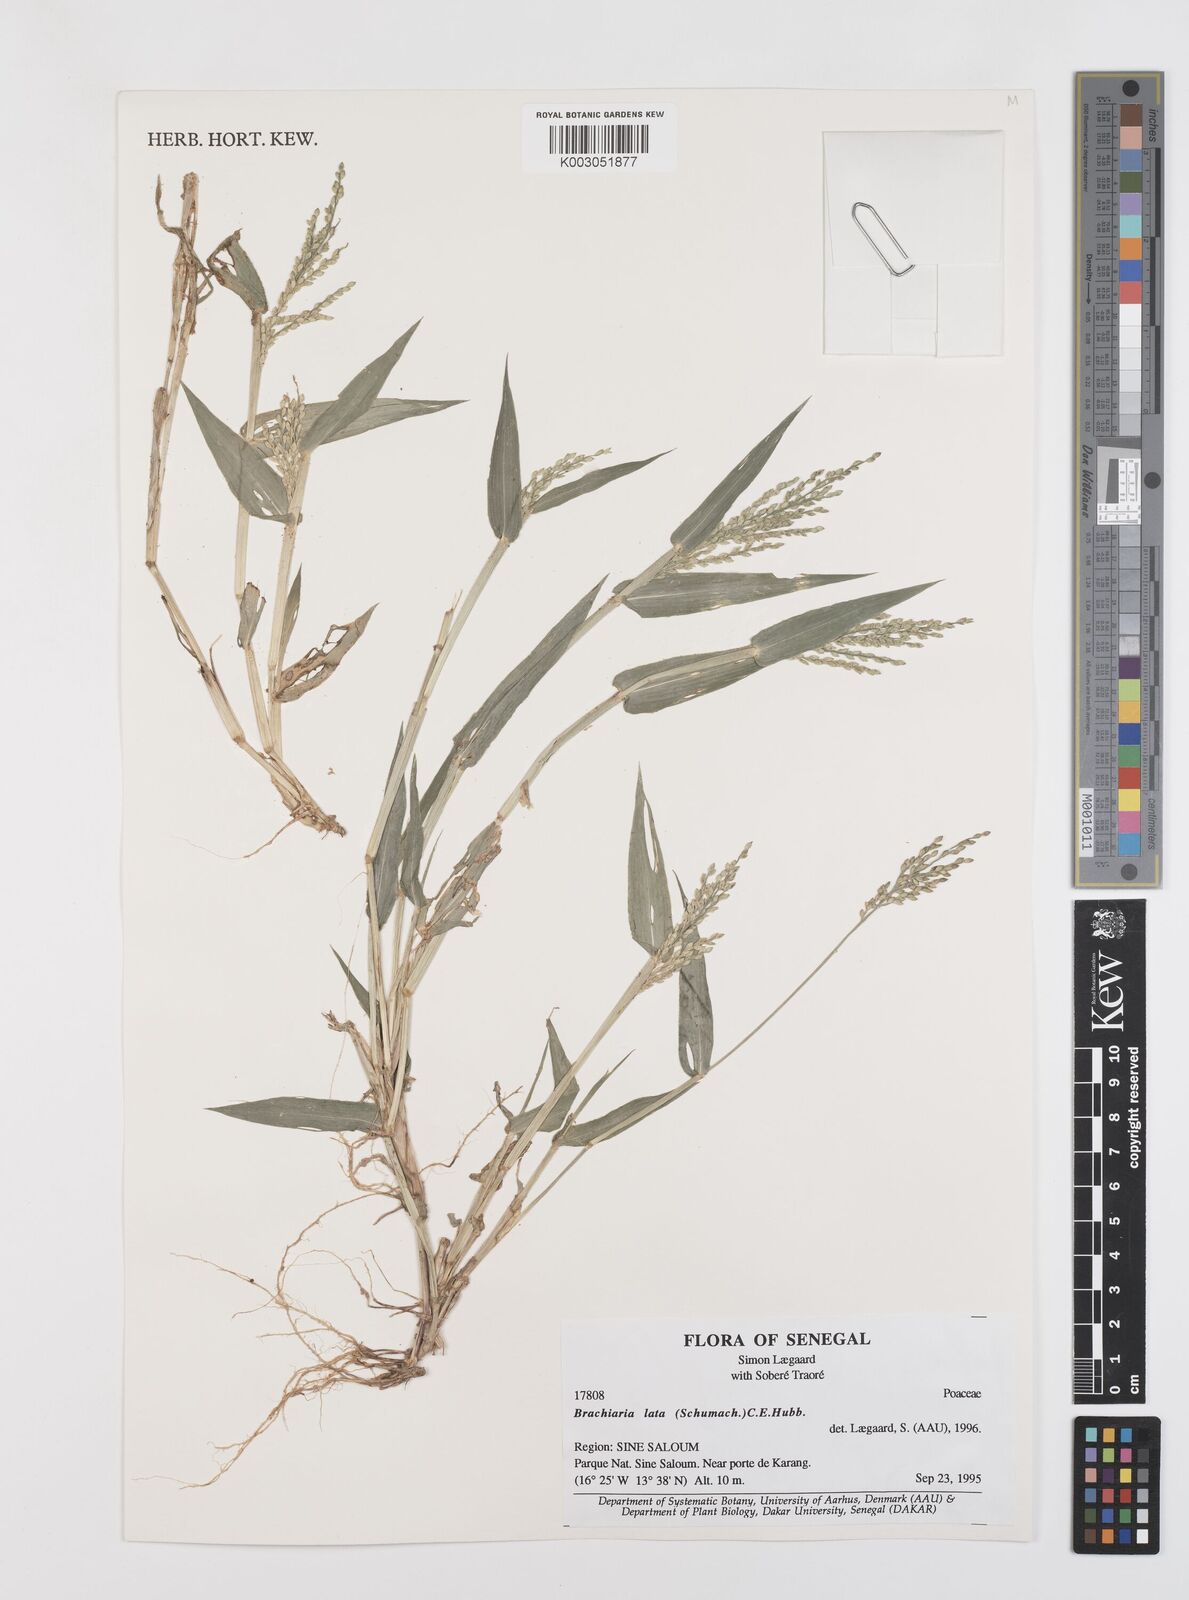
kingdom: Plantae
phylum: Tracheophyta
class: Liliopsida
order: Poales
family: Poaceae
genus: Urochloa
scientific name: Urochloa lata
